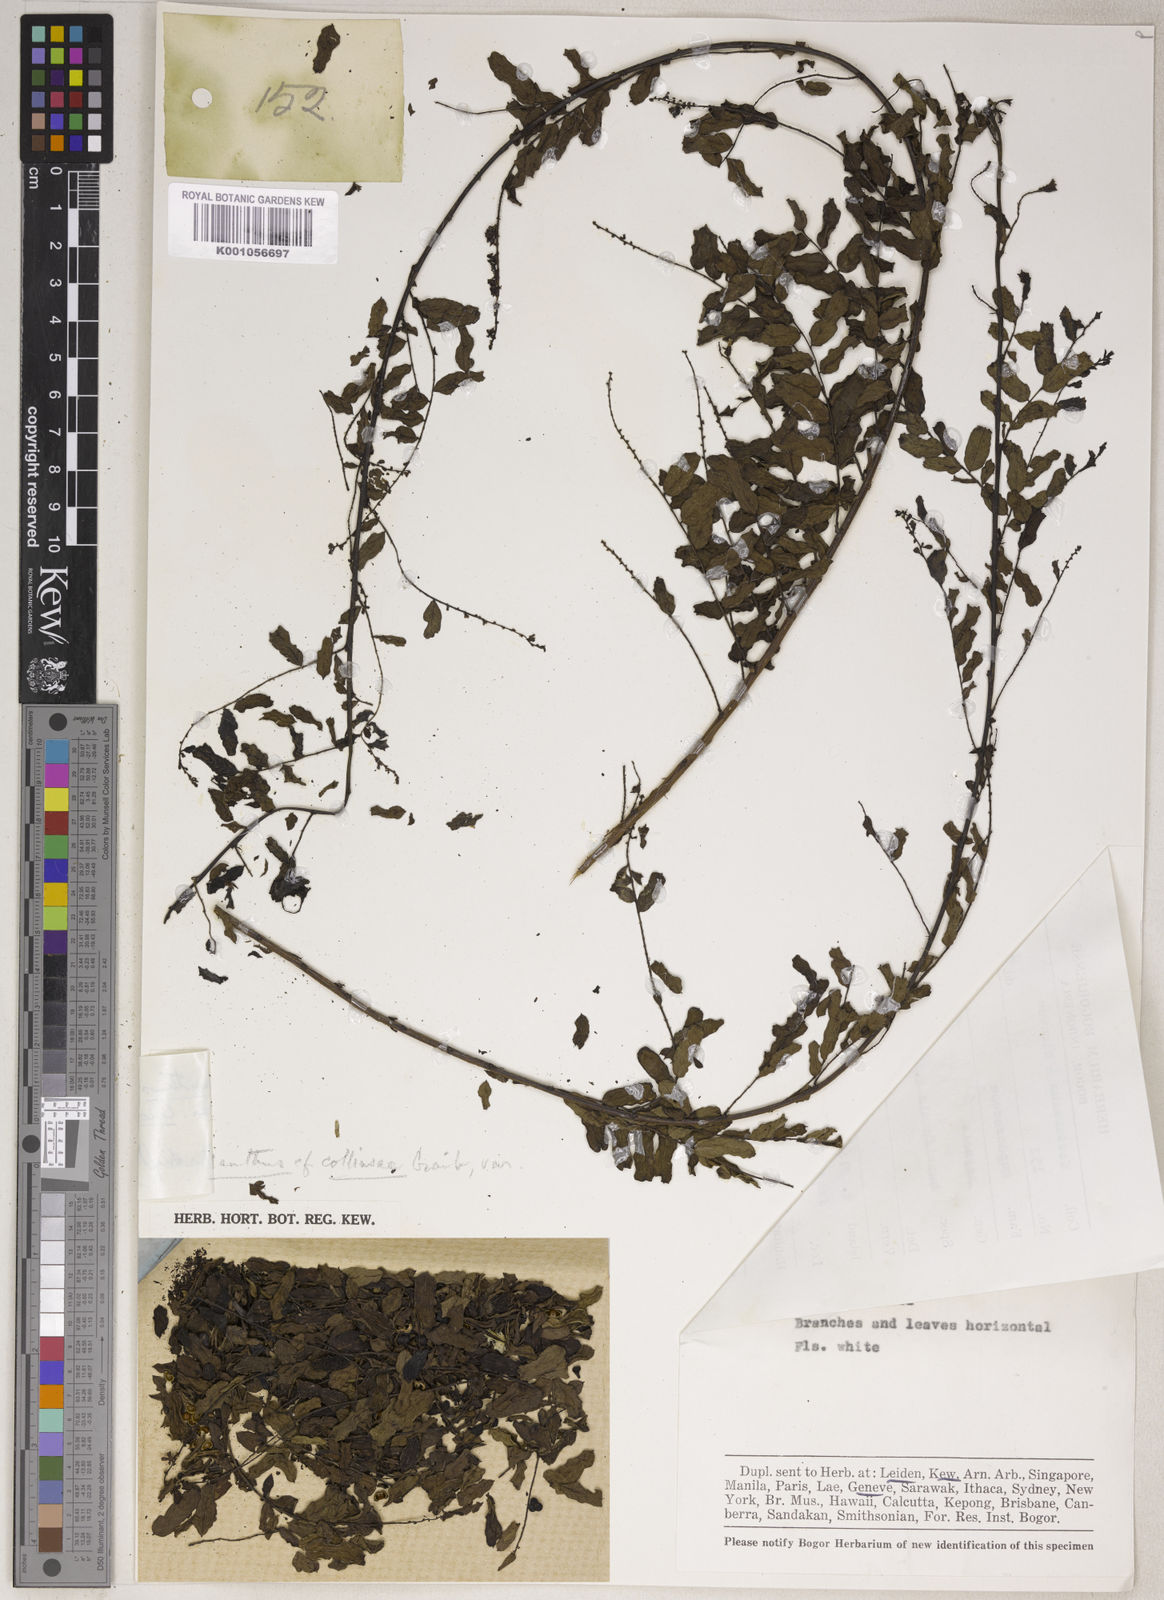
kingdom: Plantae
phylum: Tracheophyta
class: Magnoliopsida
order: Malpighiales
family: Phyllanthaceae
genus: Phyllanthus
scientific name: Phyllanthus collinsiae
